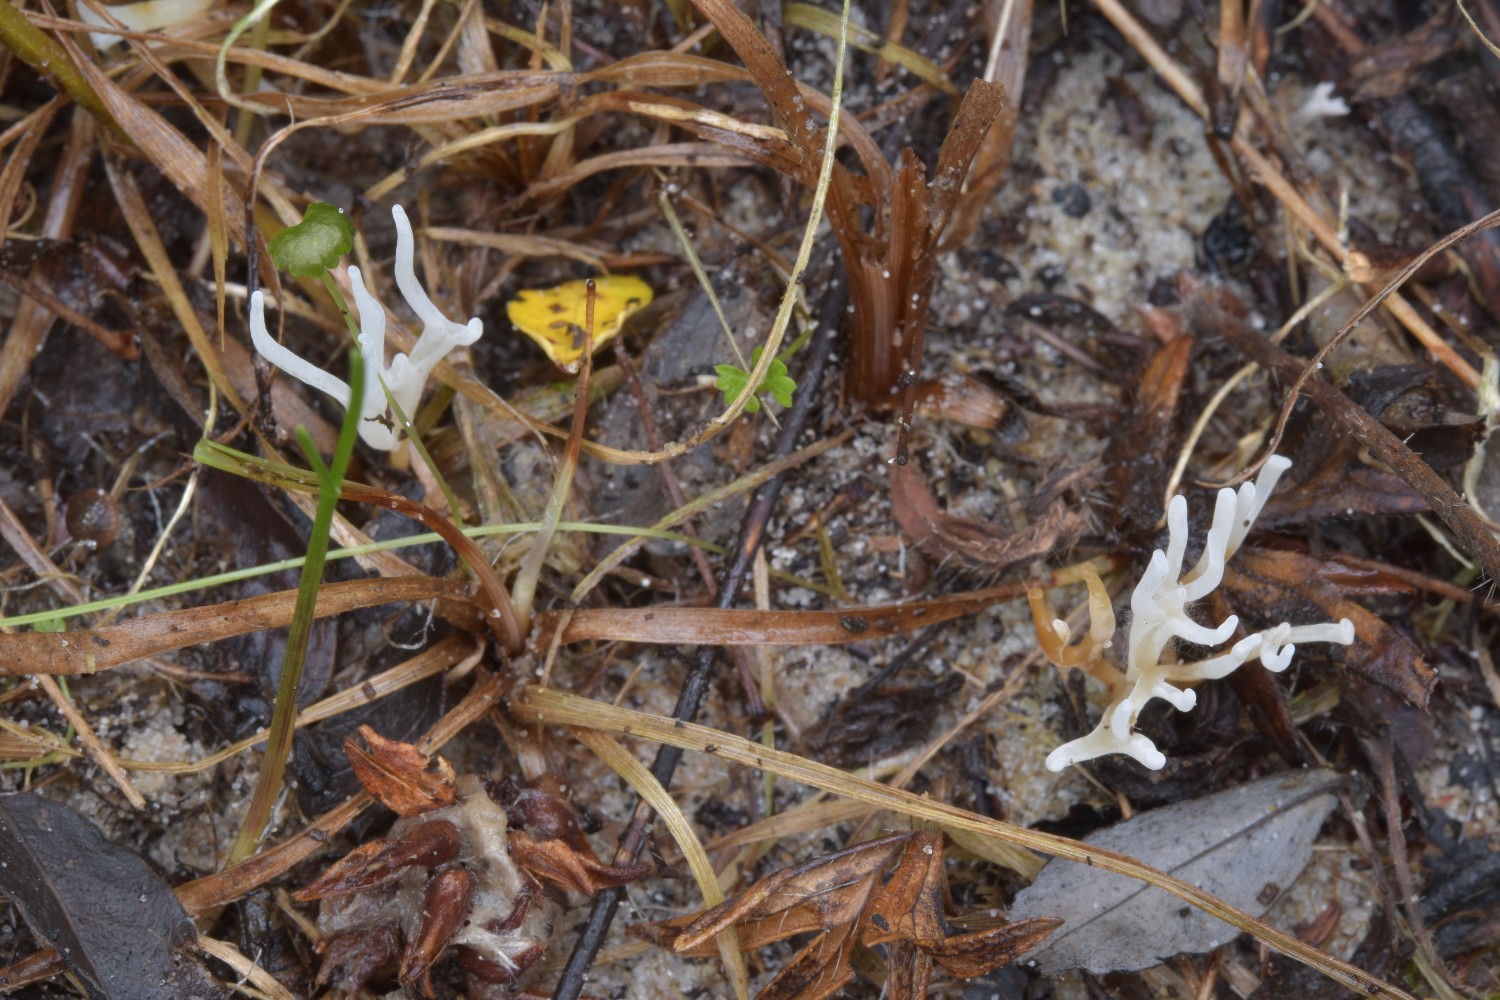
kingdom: Fungi
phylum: Basidiomycota
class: Agaricomycetes
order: Agaricales
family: Clavariaceae
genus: Clavulinopsis
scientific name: Clavulinopsis rufipes
